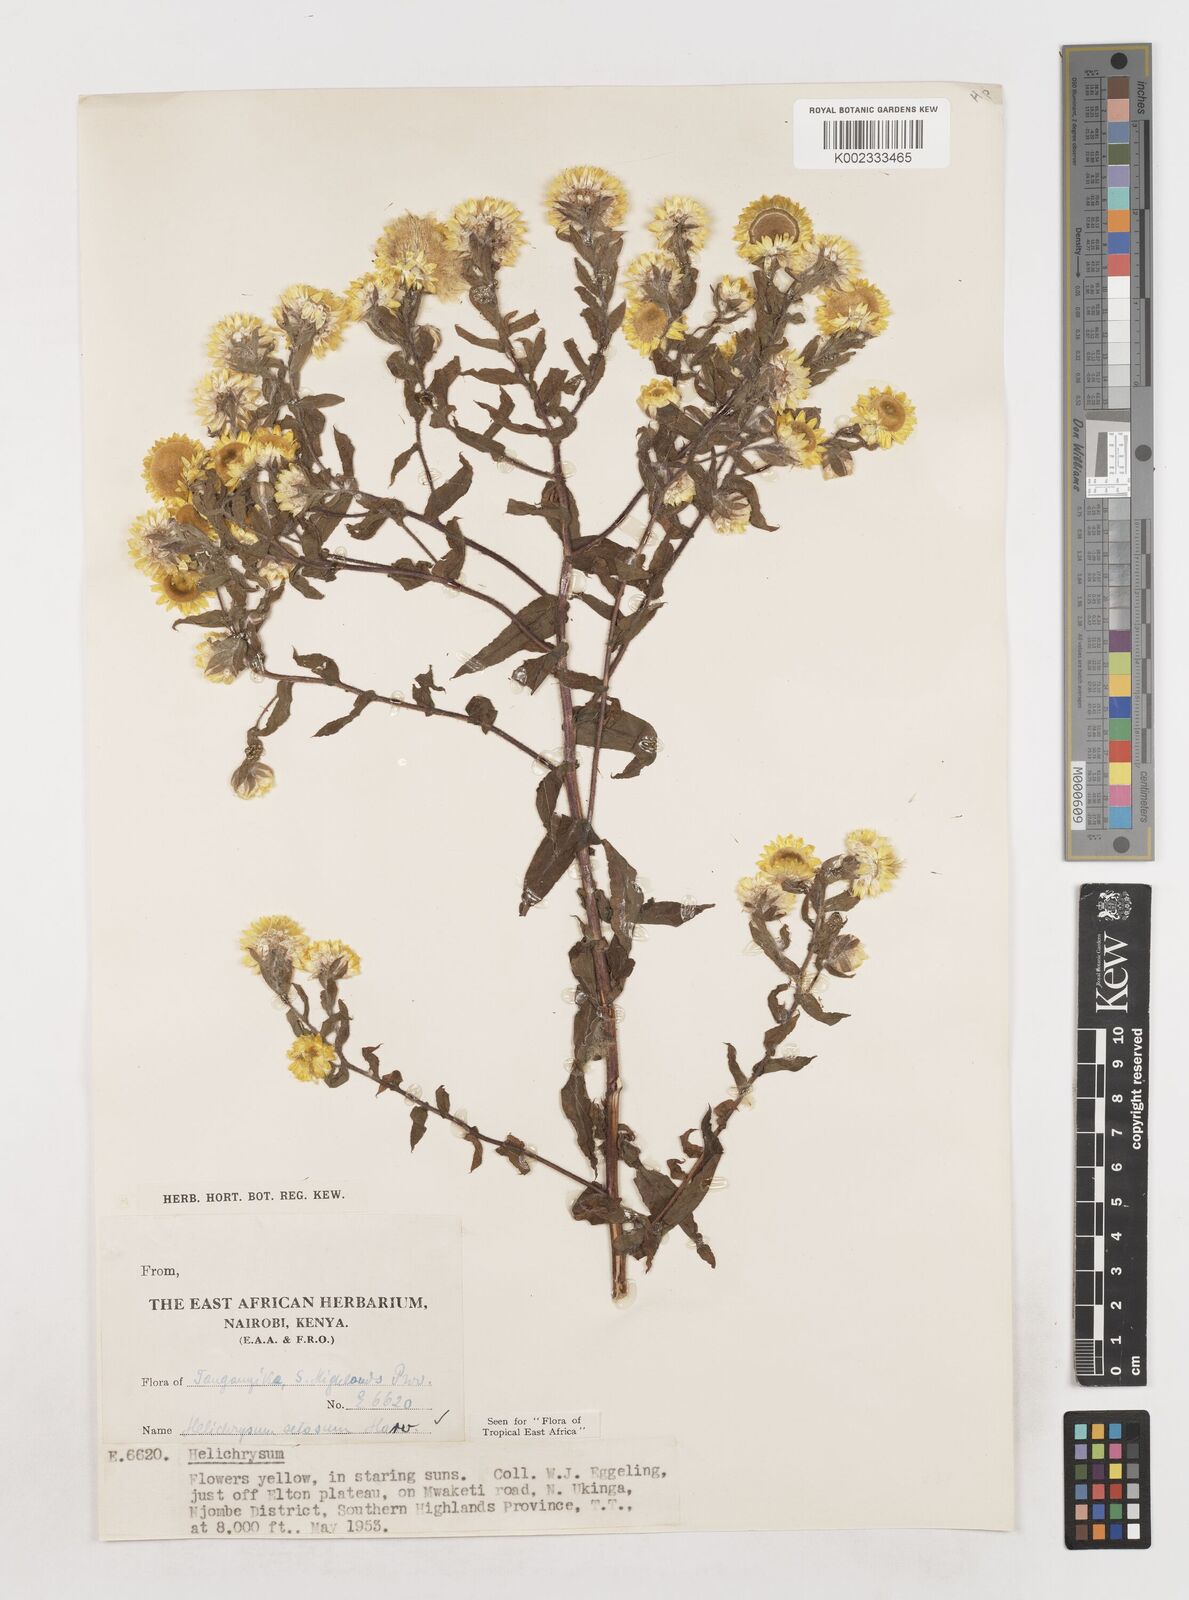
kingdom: Plantae
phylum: Tracheophyta
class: Magnoliopsida
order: Asterales
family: Asteraceae
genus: Helichrysum
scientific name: Helichrysum setosum
